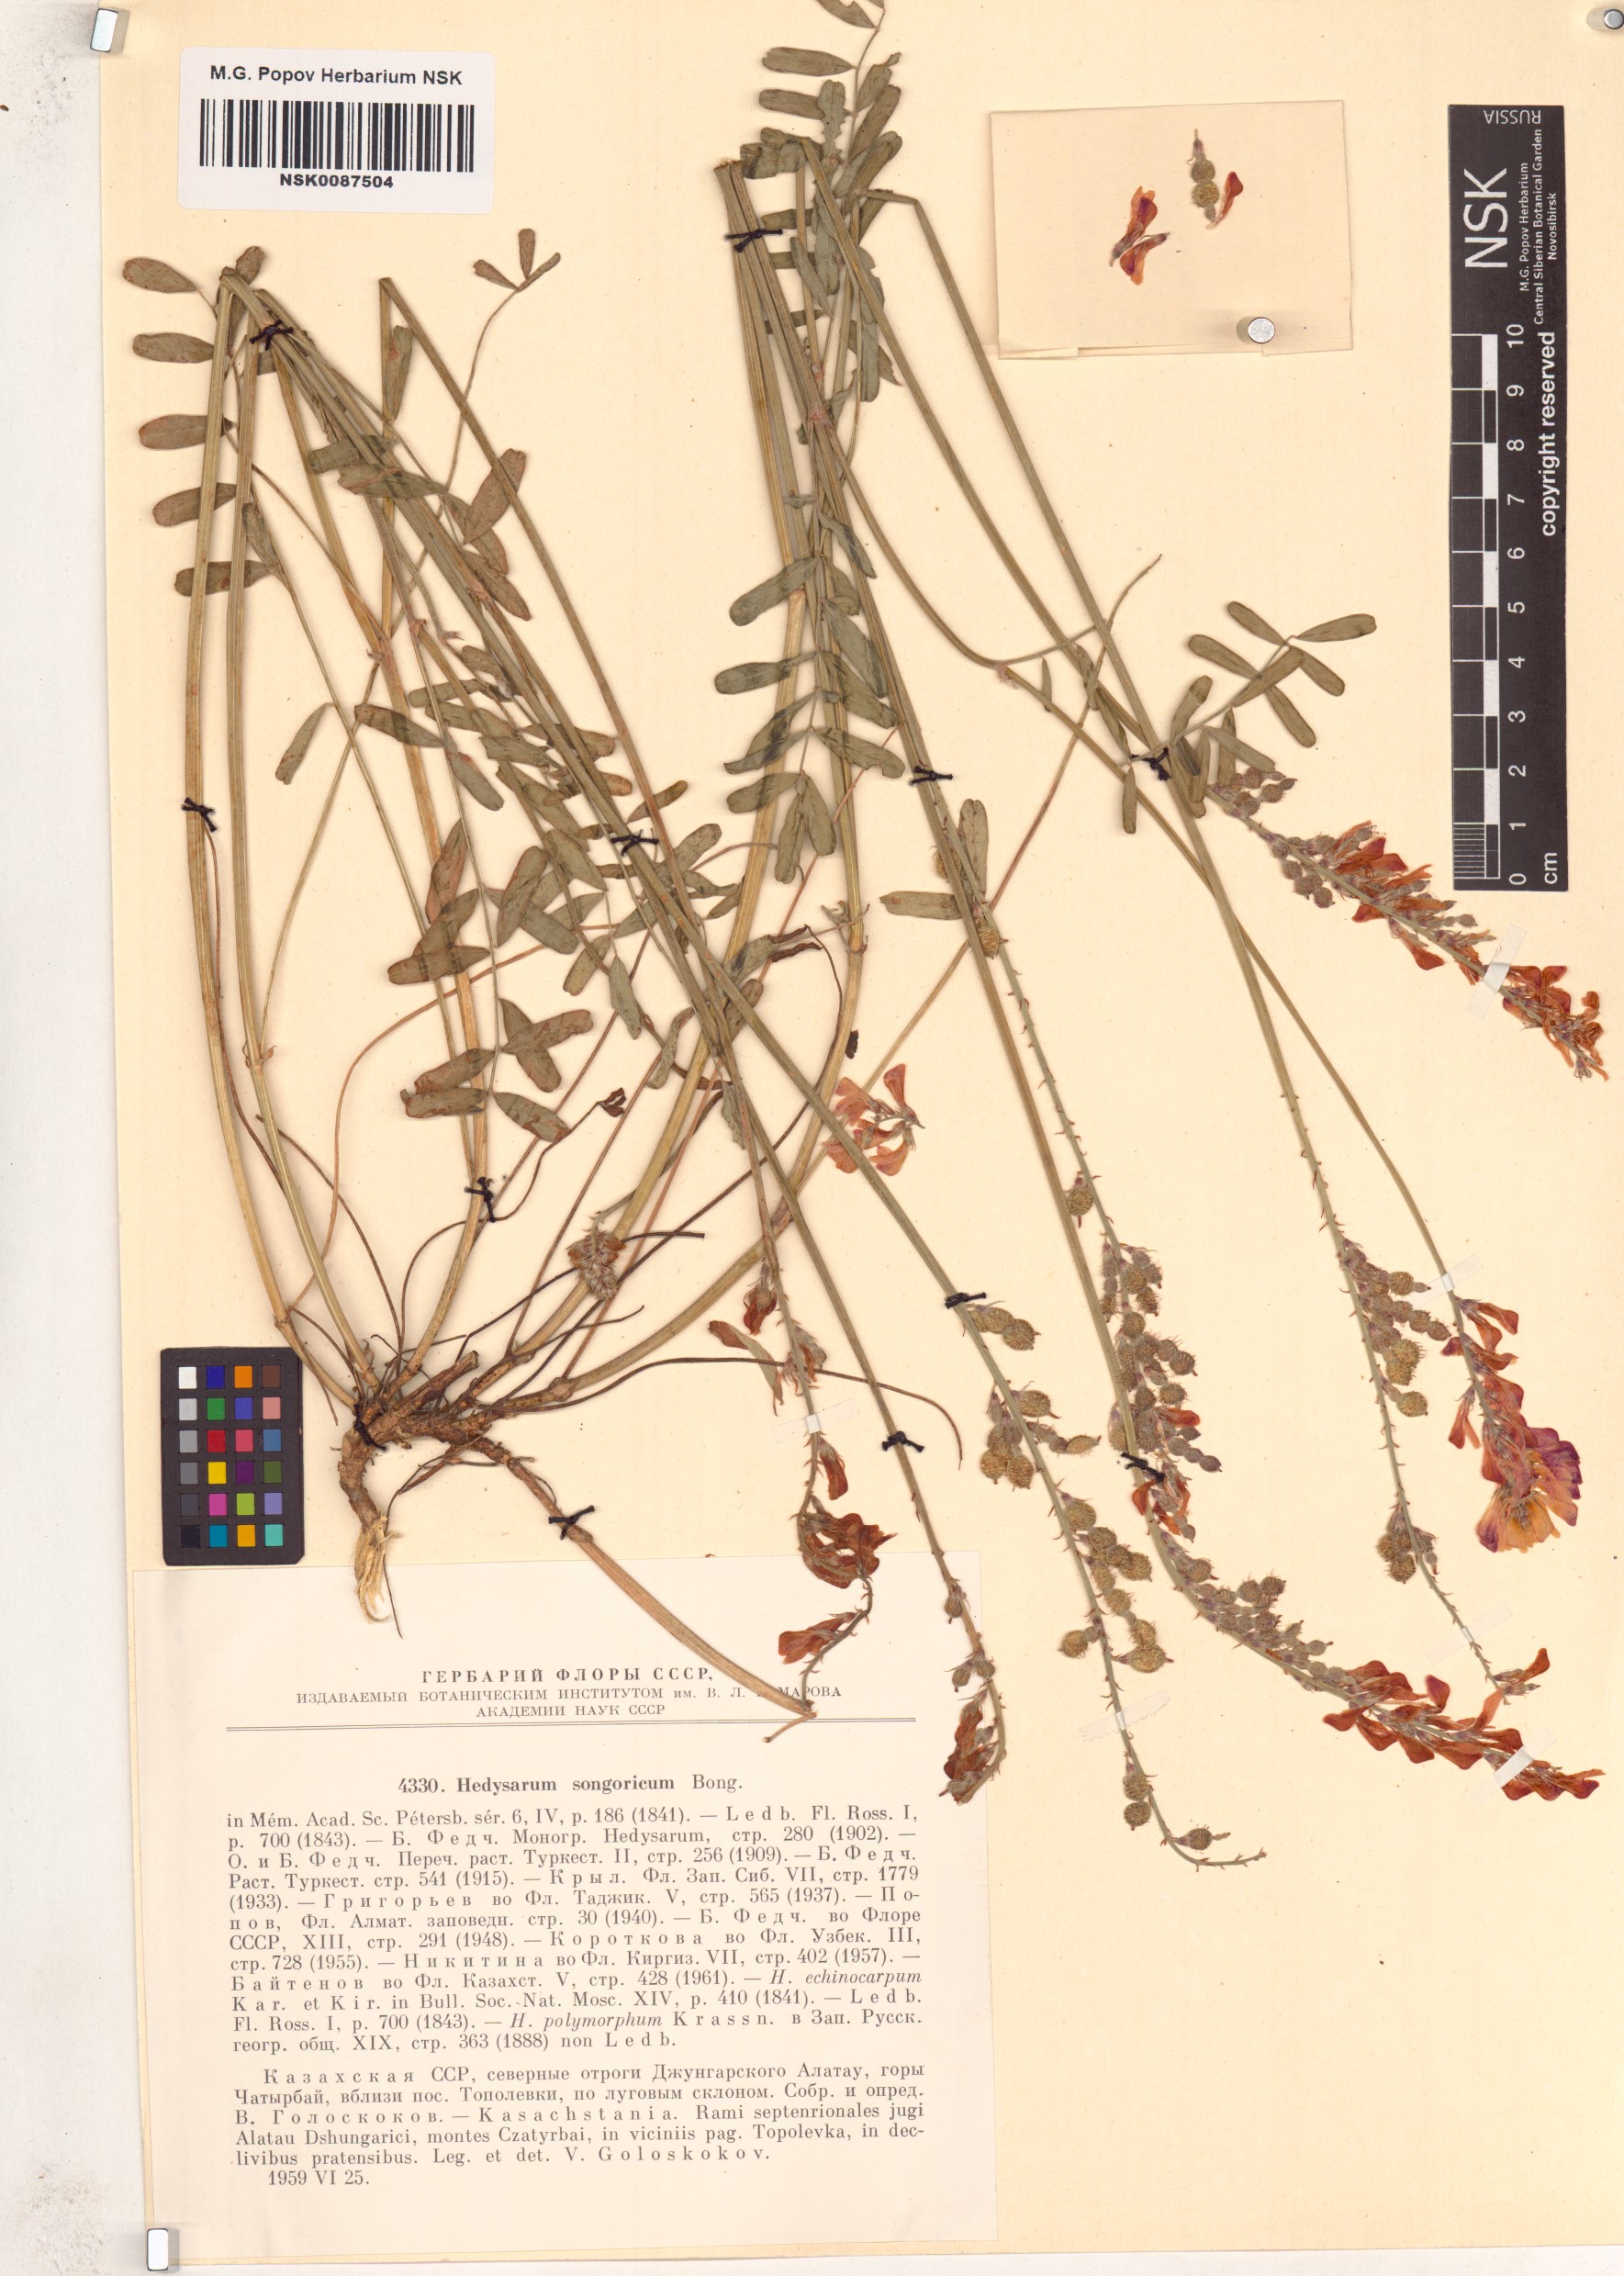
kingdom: Plantae
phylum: Tracheophyta
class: Magnoliopsida
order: Fabales
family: Fabaceae
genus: Hedysarum
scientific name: Hedysarum songaricum
